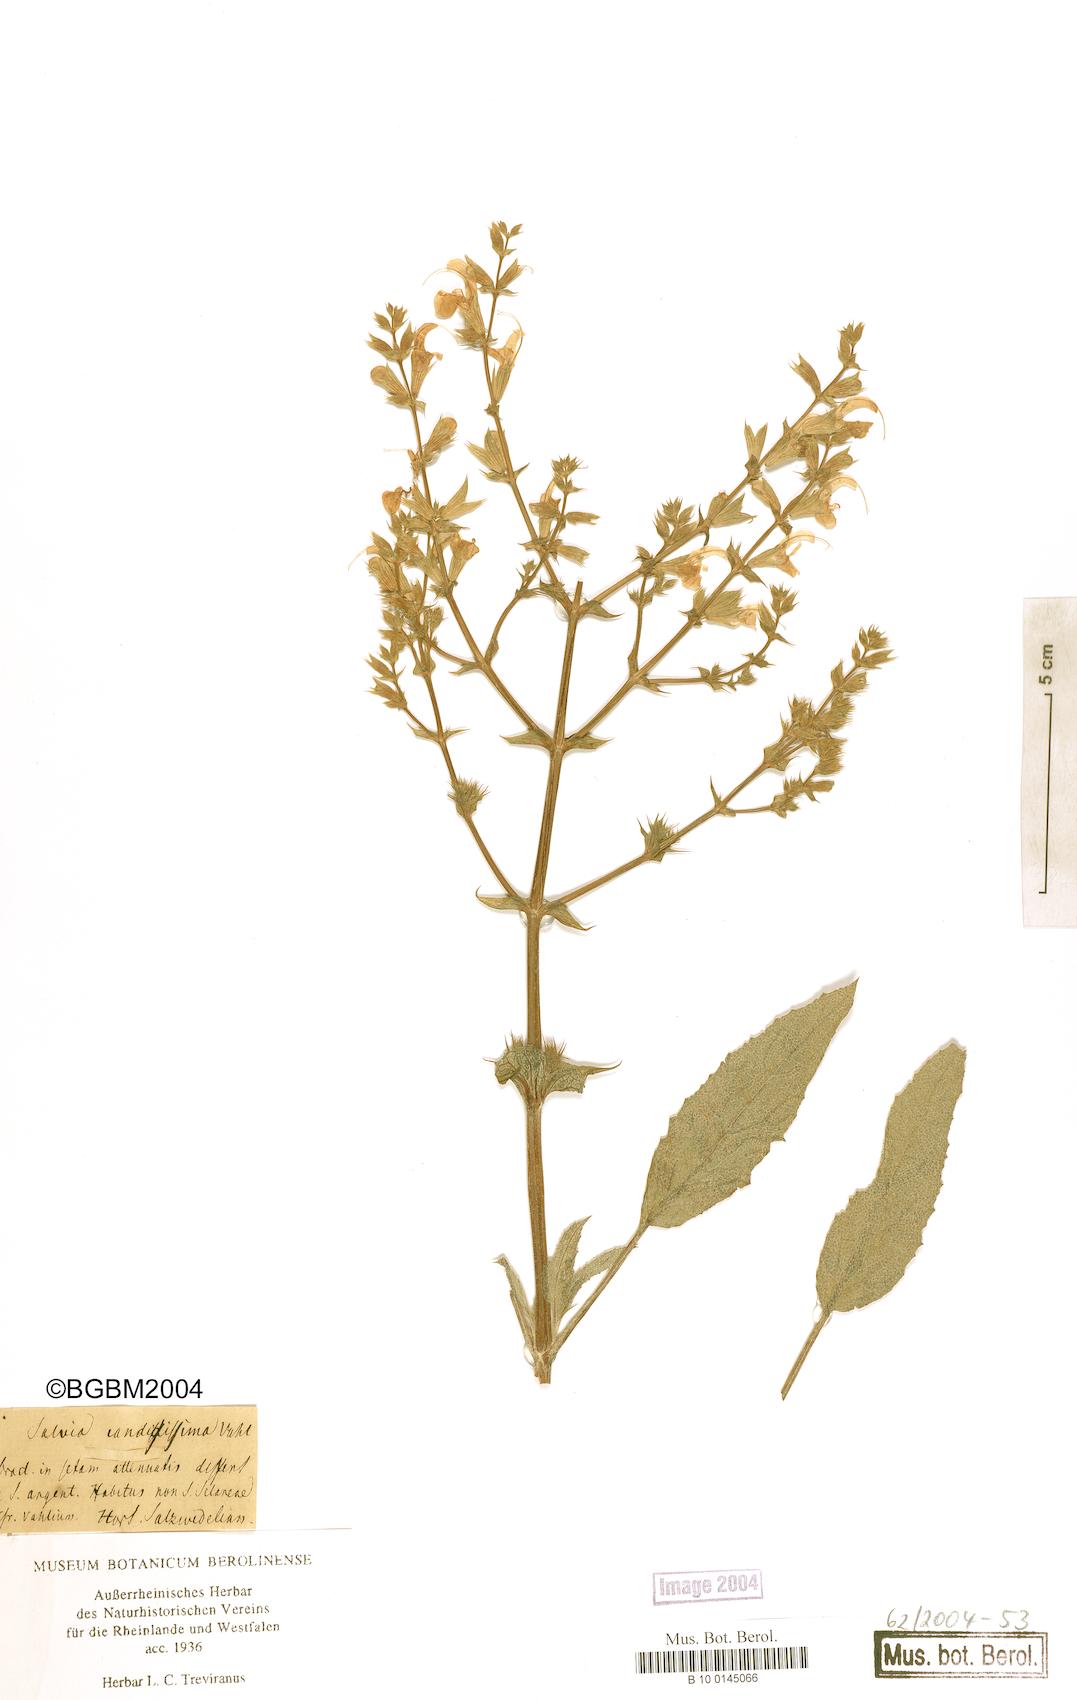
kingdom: Plantae
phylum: Tracheophyta
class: Magnoliopsida
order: Lamiales
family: Lamiaceae
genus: Salvia
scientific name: Salvia candidissima
